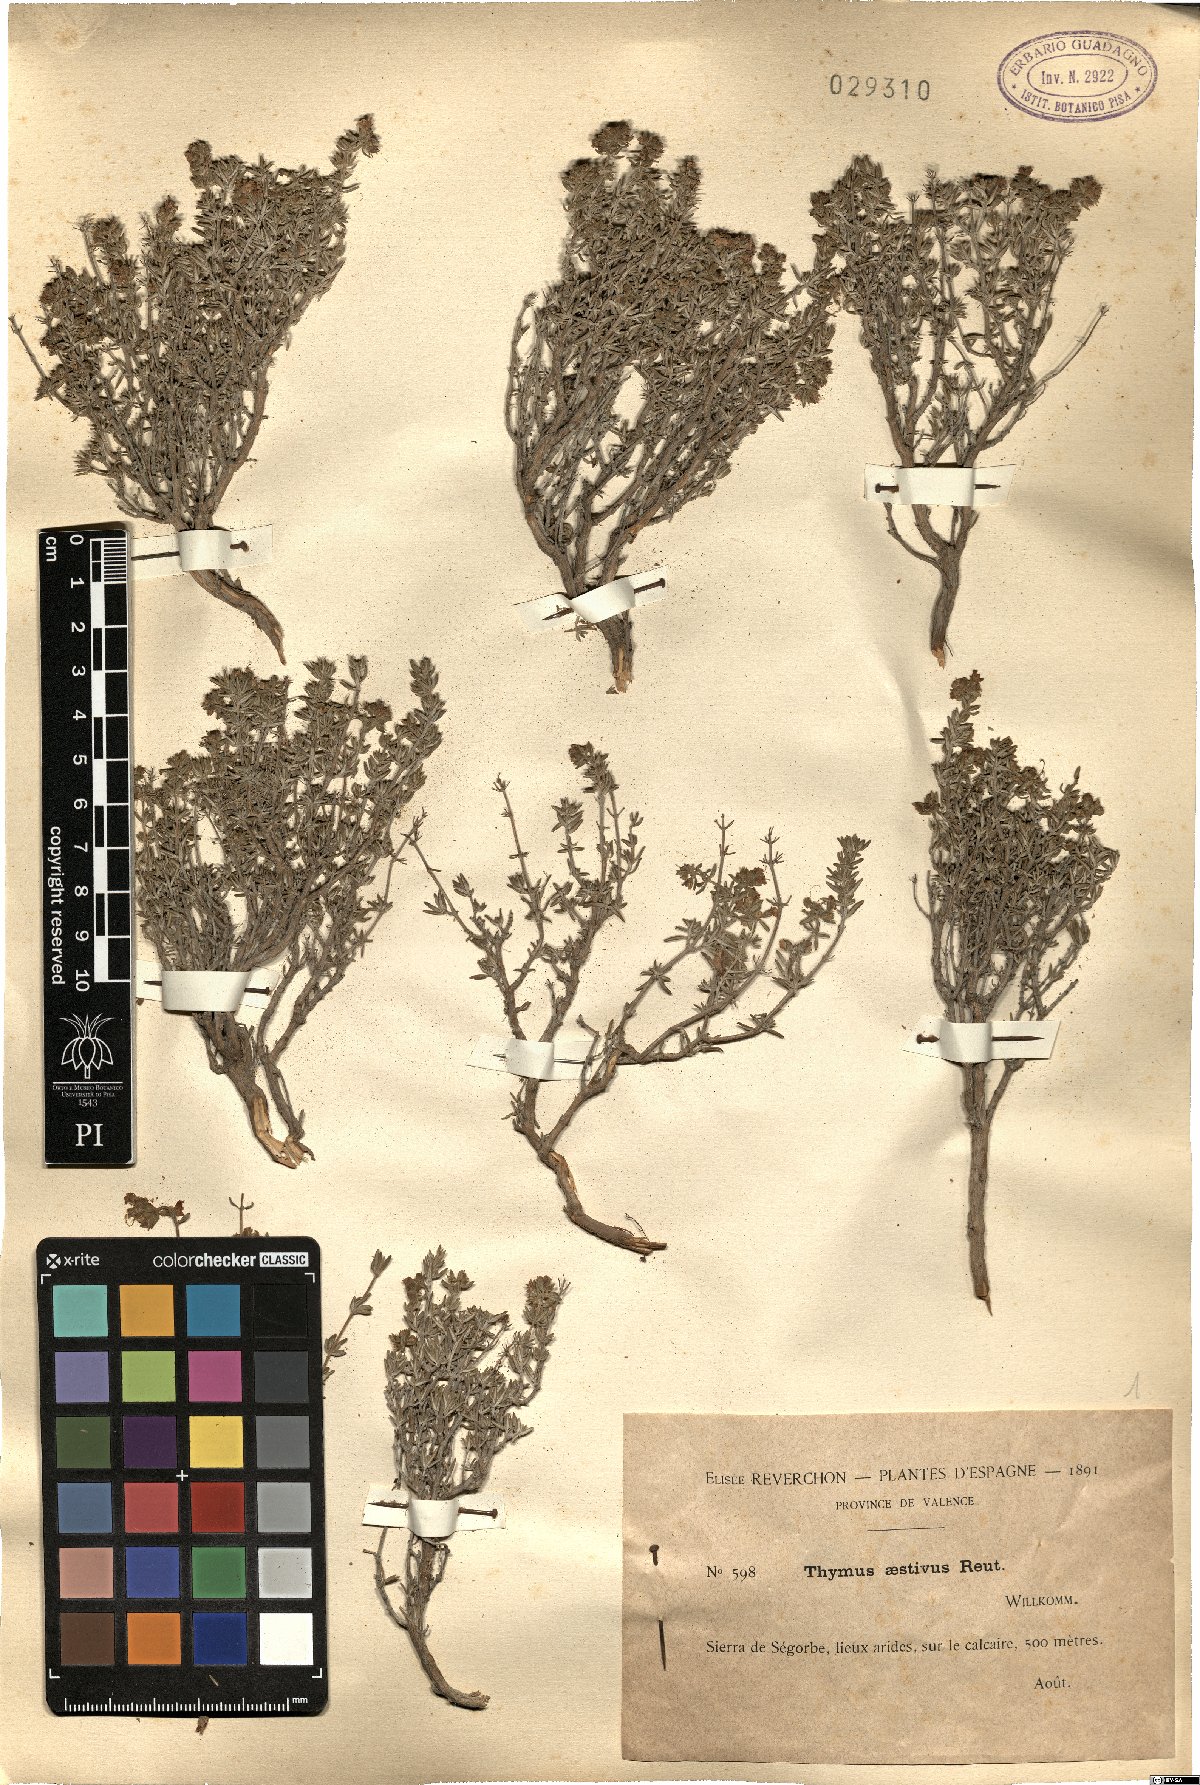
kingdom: Plantae
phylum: Tracheophyta
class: Magnoliopsida
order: Lamiales
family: Lamiaceae
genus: Thymus
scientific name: Thymus vulgaris
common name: Garden thyme
